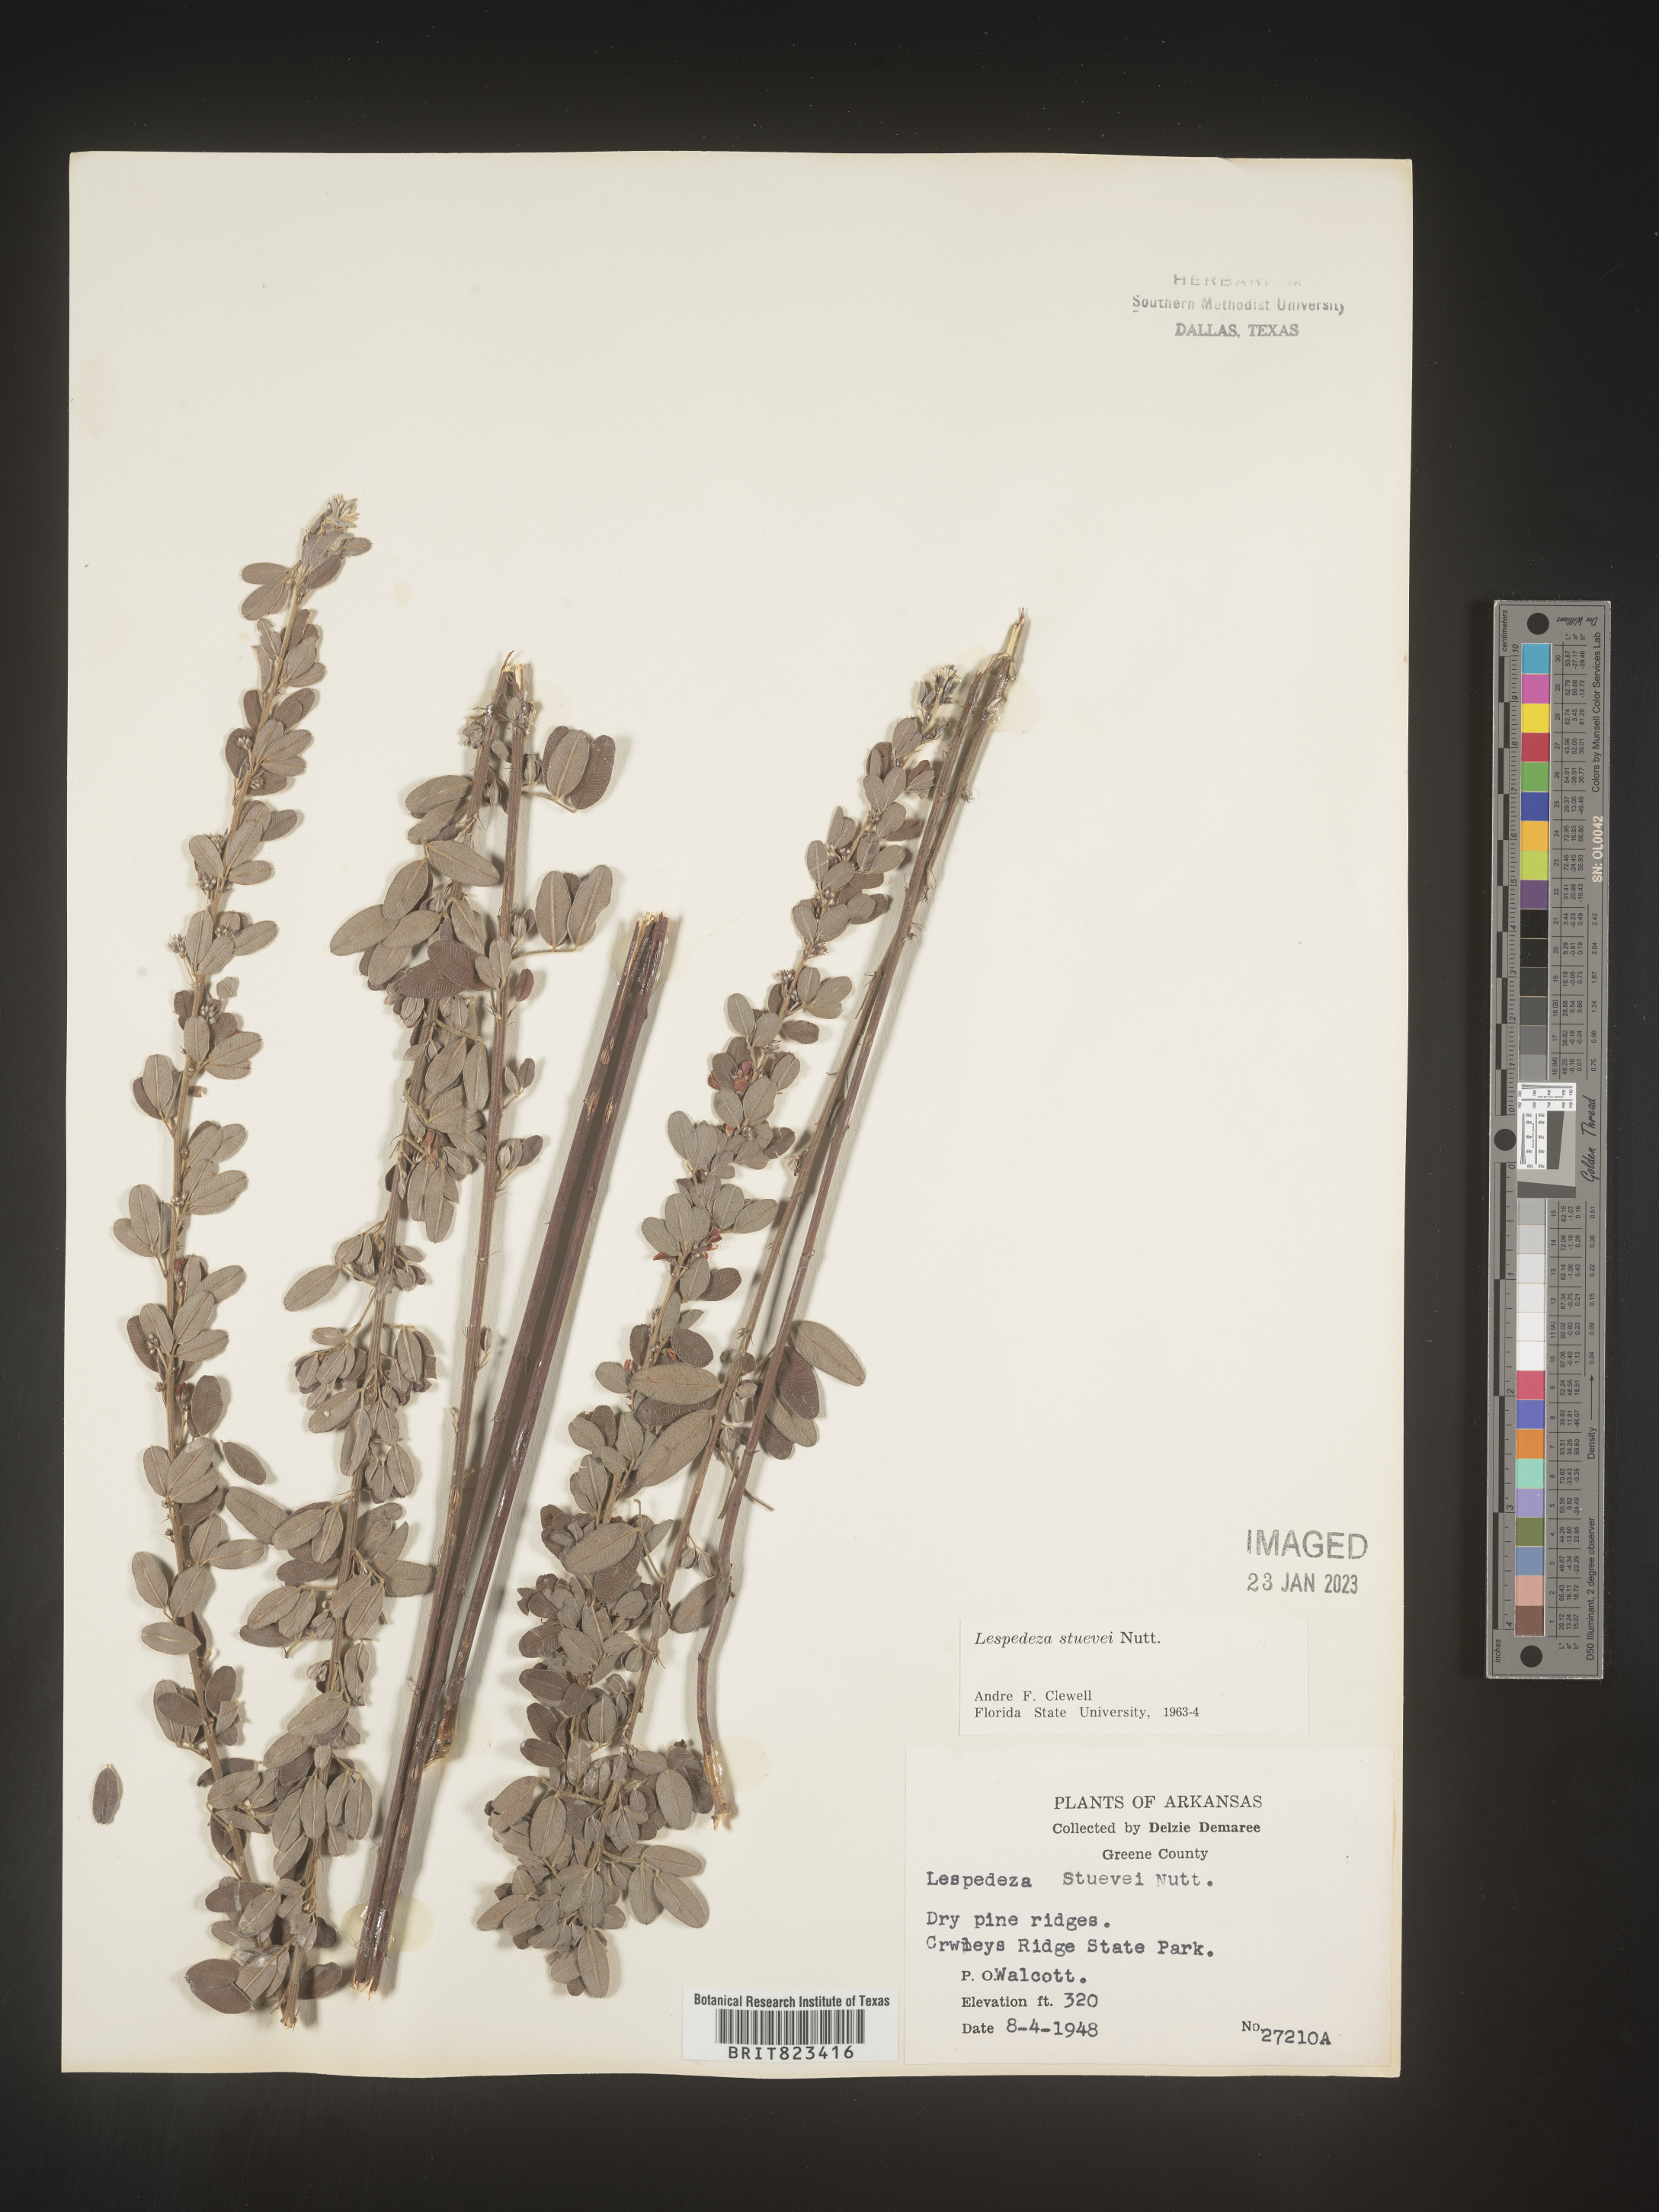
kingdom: Plantae
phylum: Tracheophyta
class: Magnoliopsida
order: Fabales
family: Fabaceae
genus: Lespedeza
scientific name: Lespedeza stuevei
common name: Tall bush-clover
